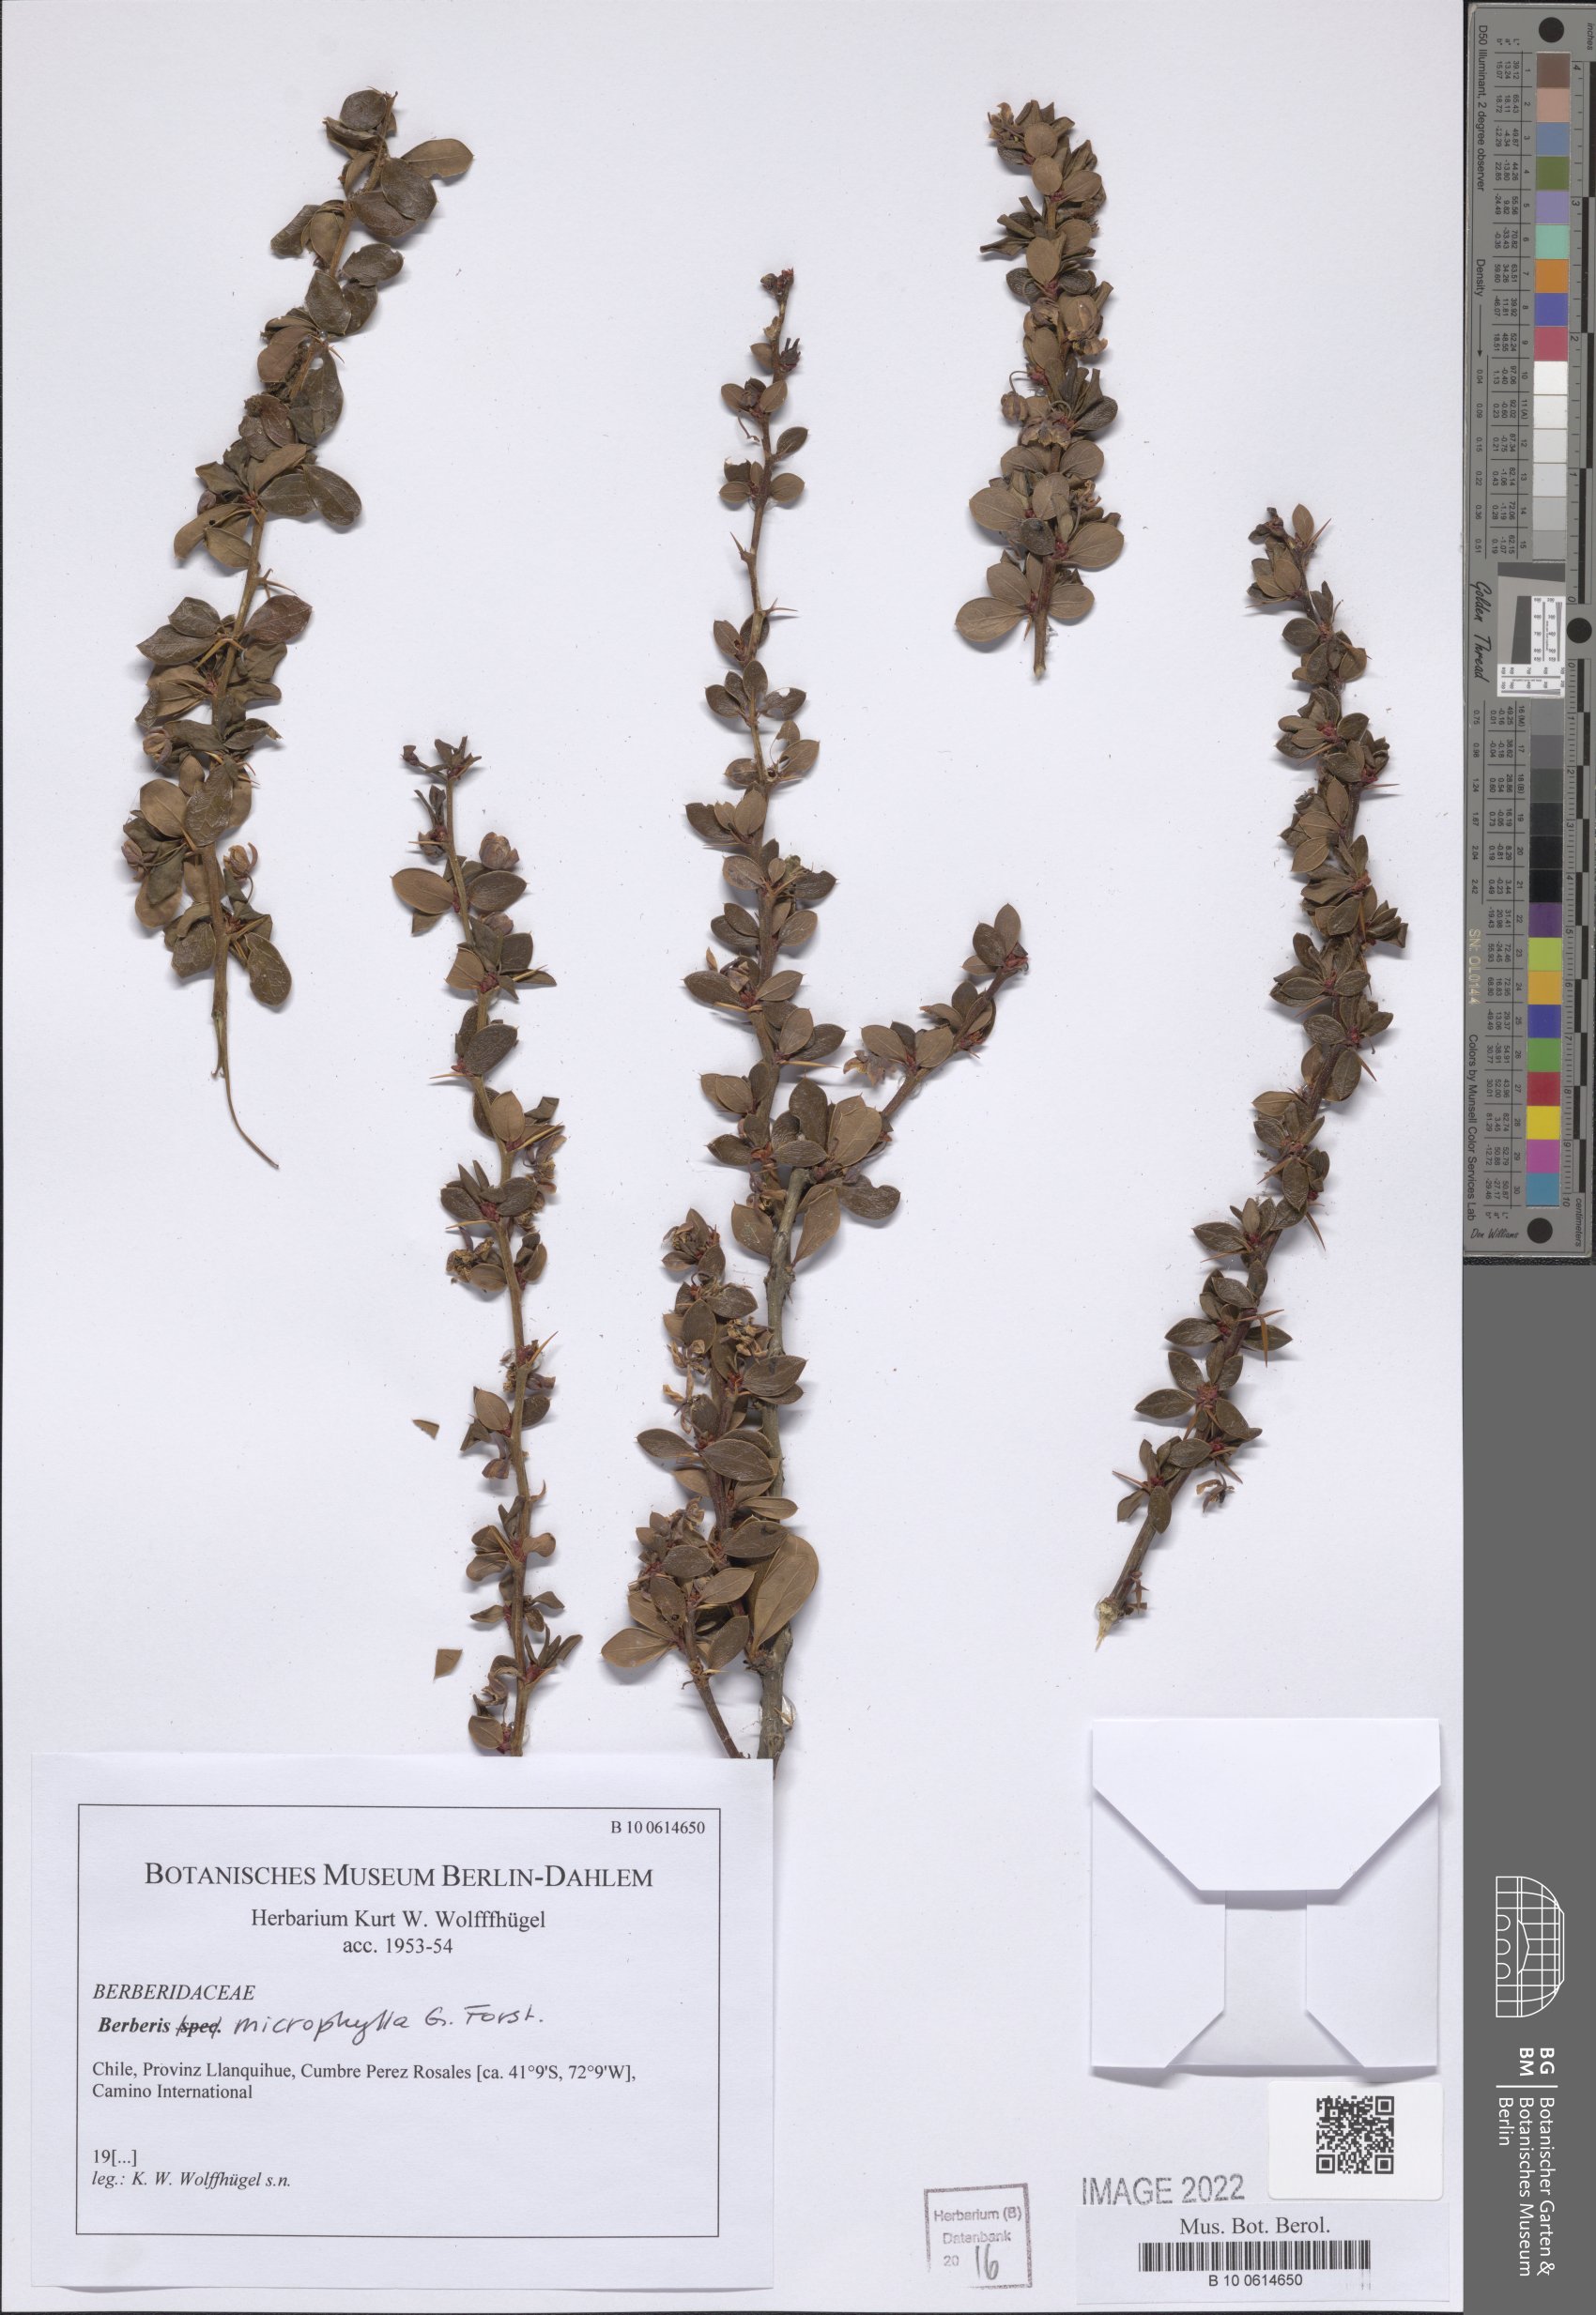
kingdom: Plantae
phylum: Tracheophyta
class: Magnoliopsida
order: Ranunculales
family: Berberidaceae
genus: Berberis
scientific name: Berberis microphylla
